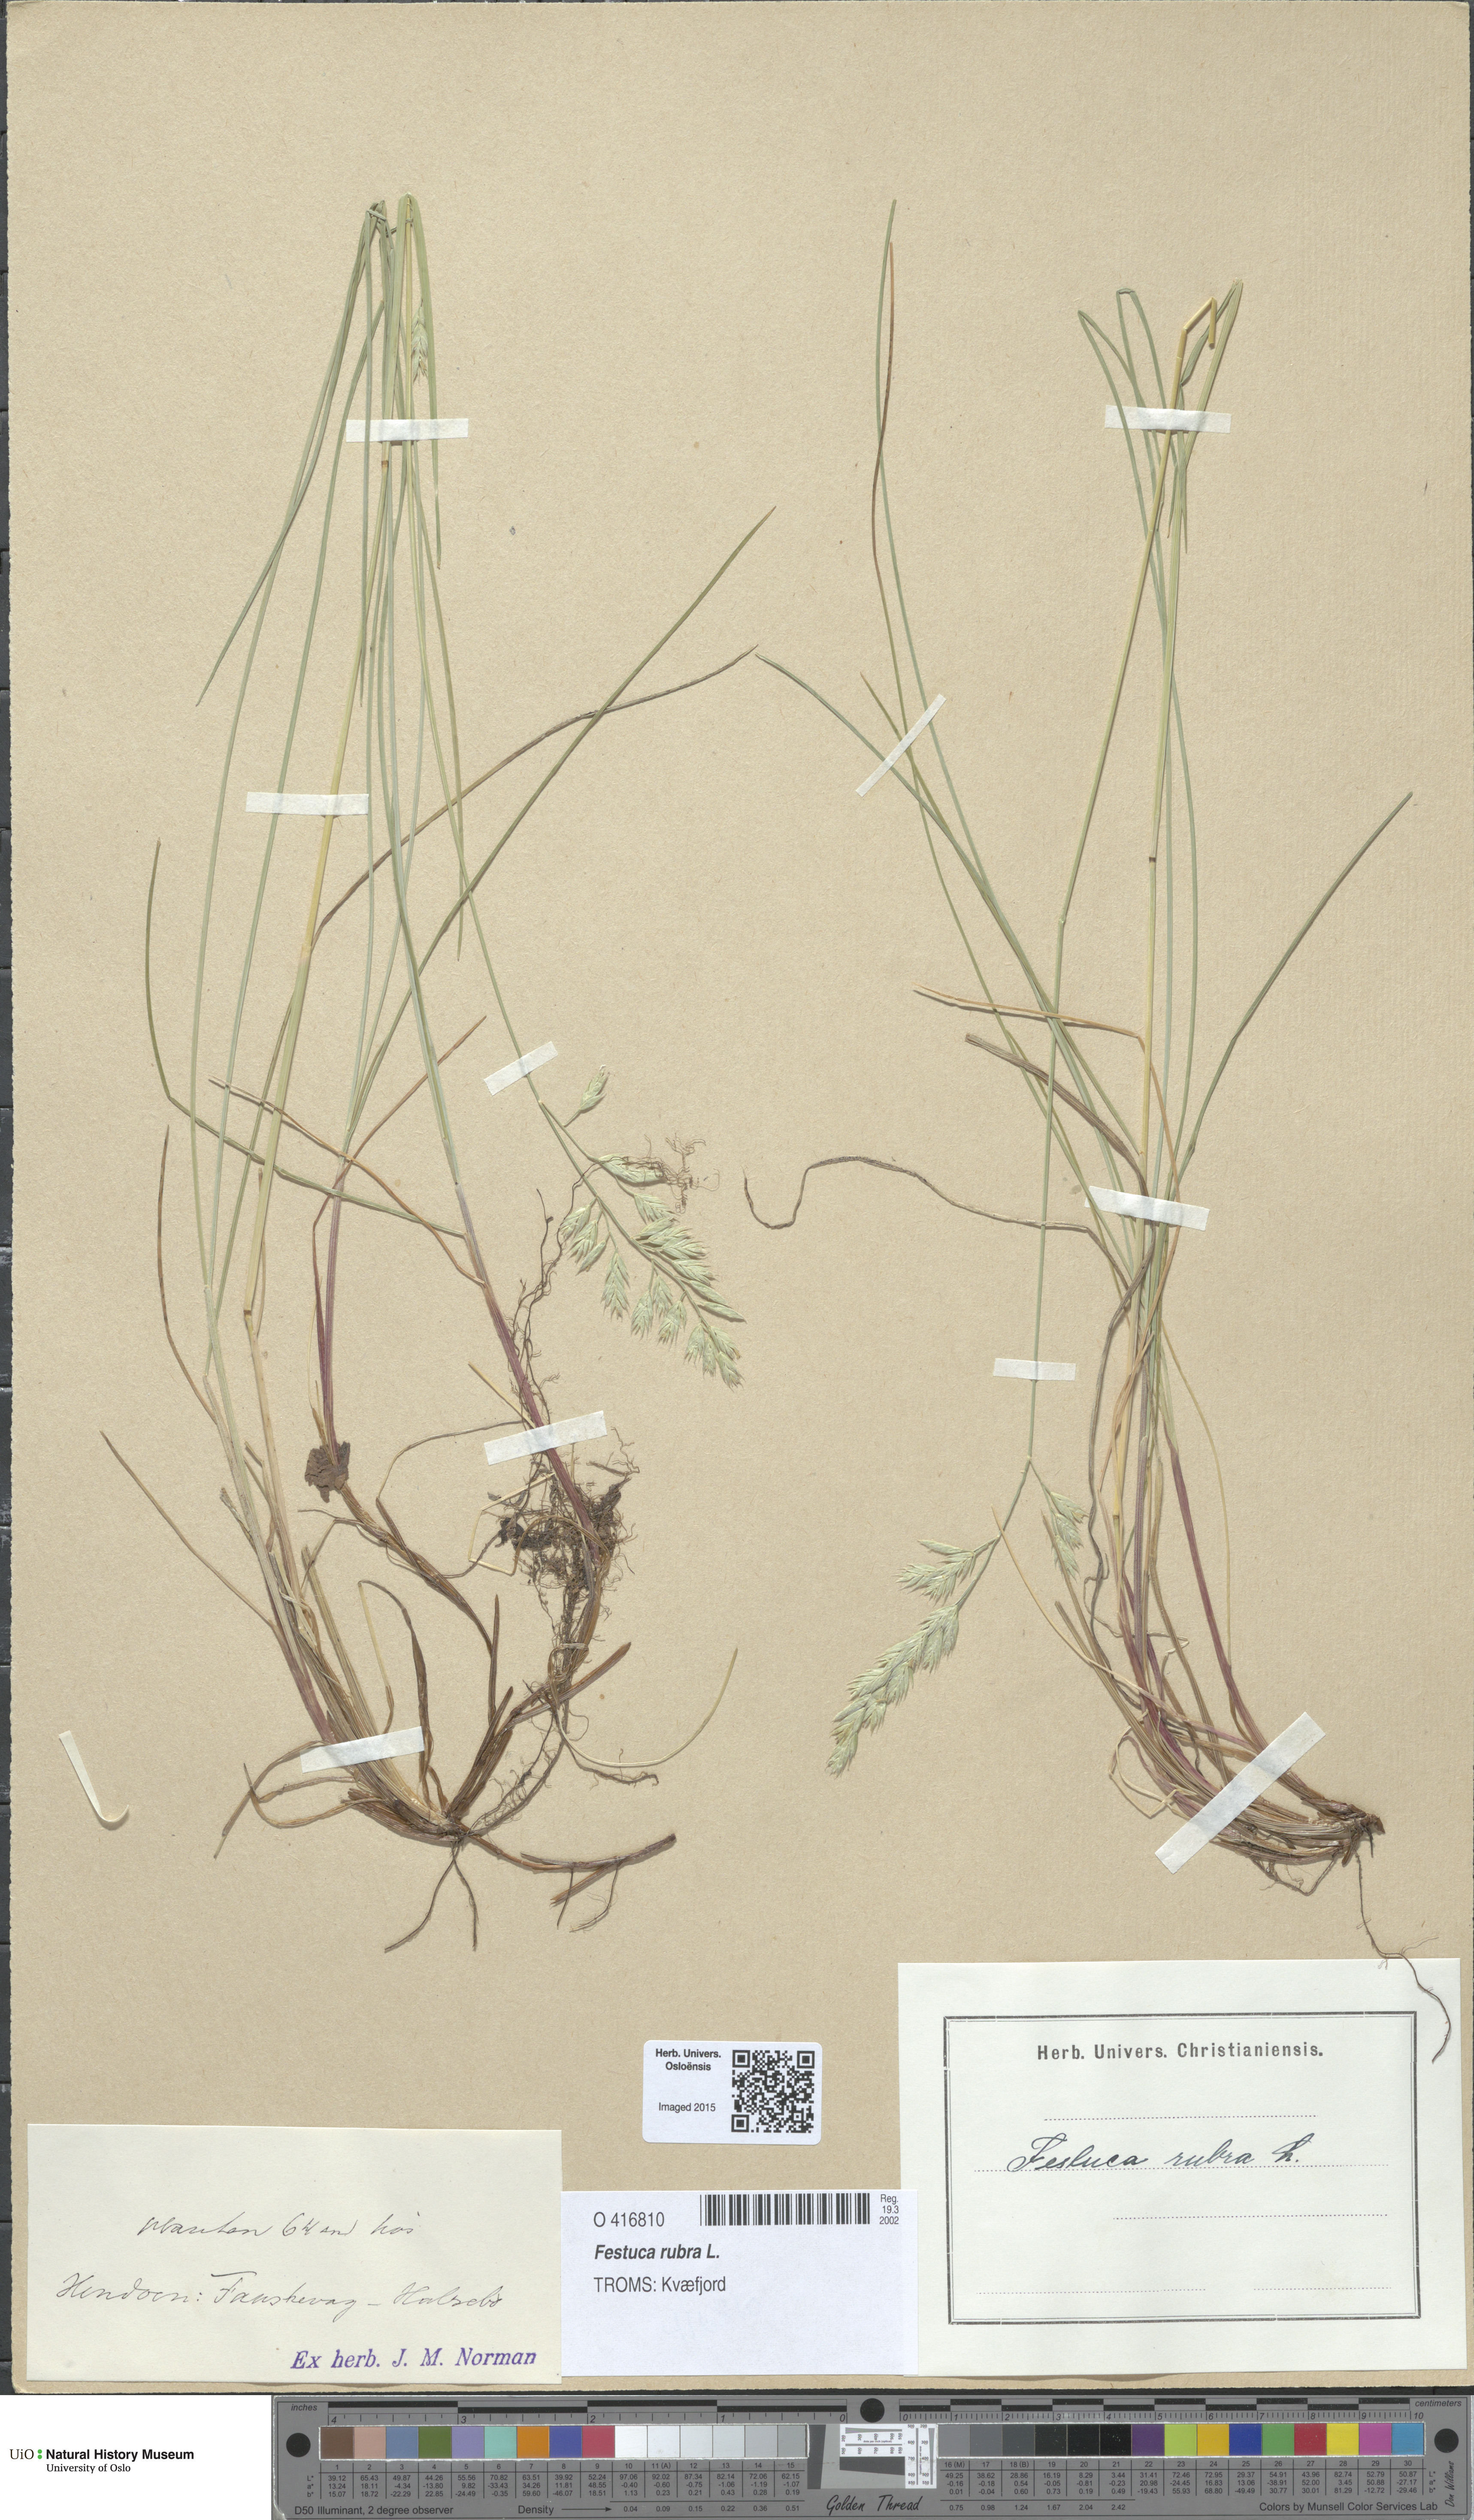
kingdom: Plantae
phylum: Tracheophyta
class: Liliopsida
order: Poales
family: Poaceae
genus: Festuca
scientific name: Festuca rubra
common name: Red fescue
